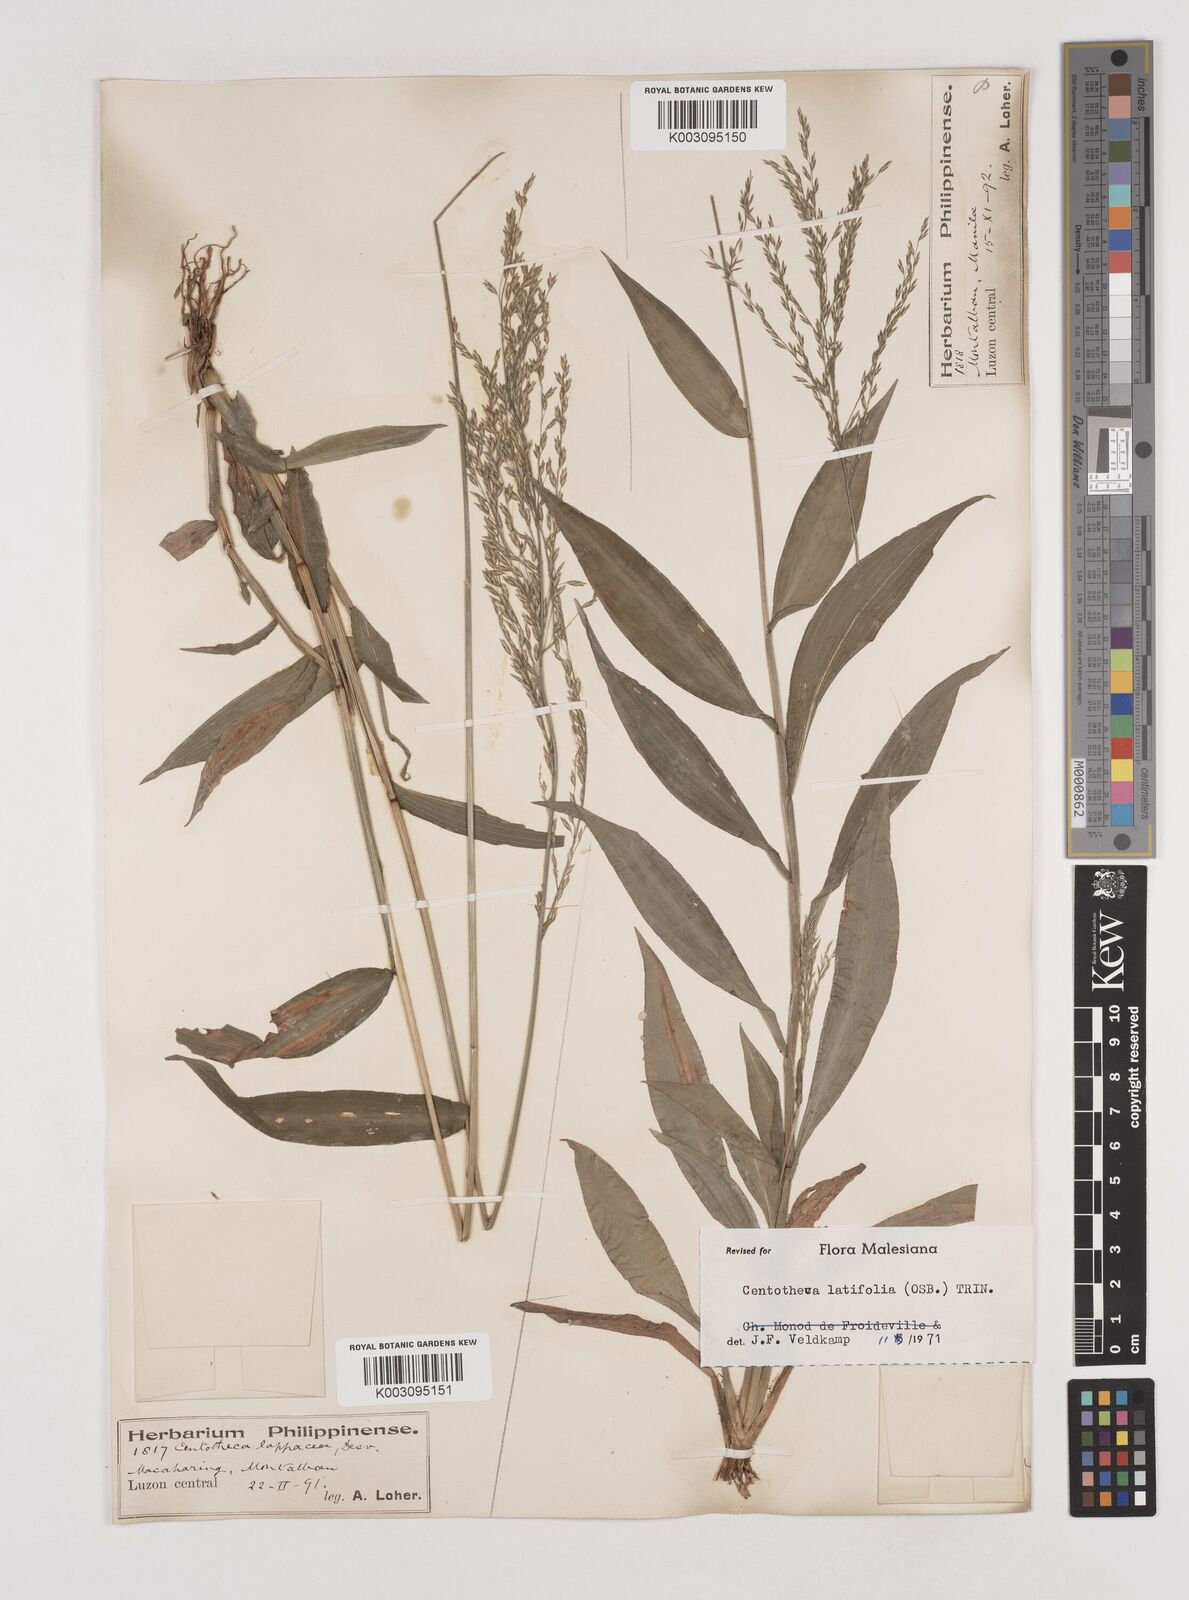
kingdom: Plantae
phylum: Tracheophyta
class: Liliopsida
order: Poales
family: Poaceae
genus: Centotheca
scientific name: Centotheca lappacea
